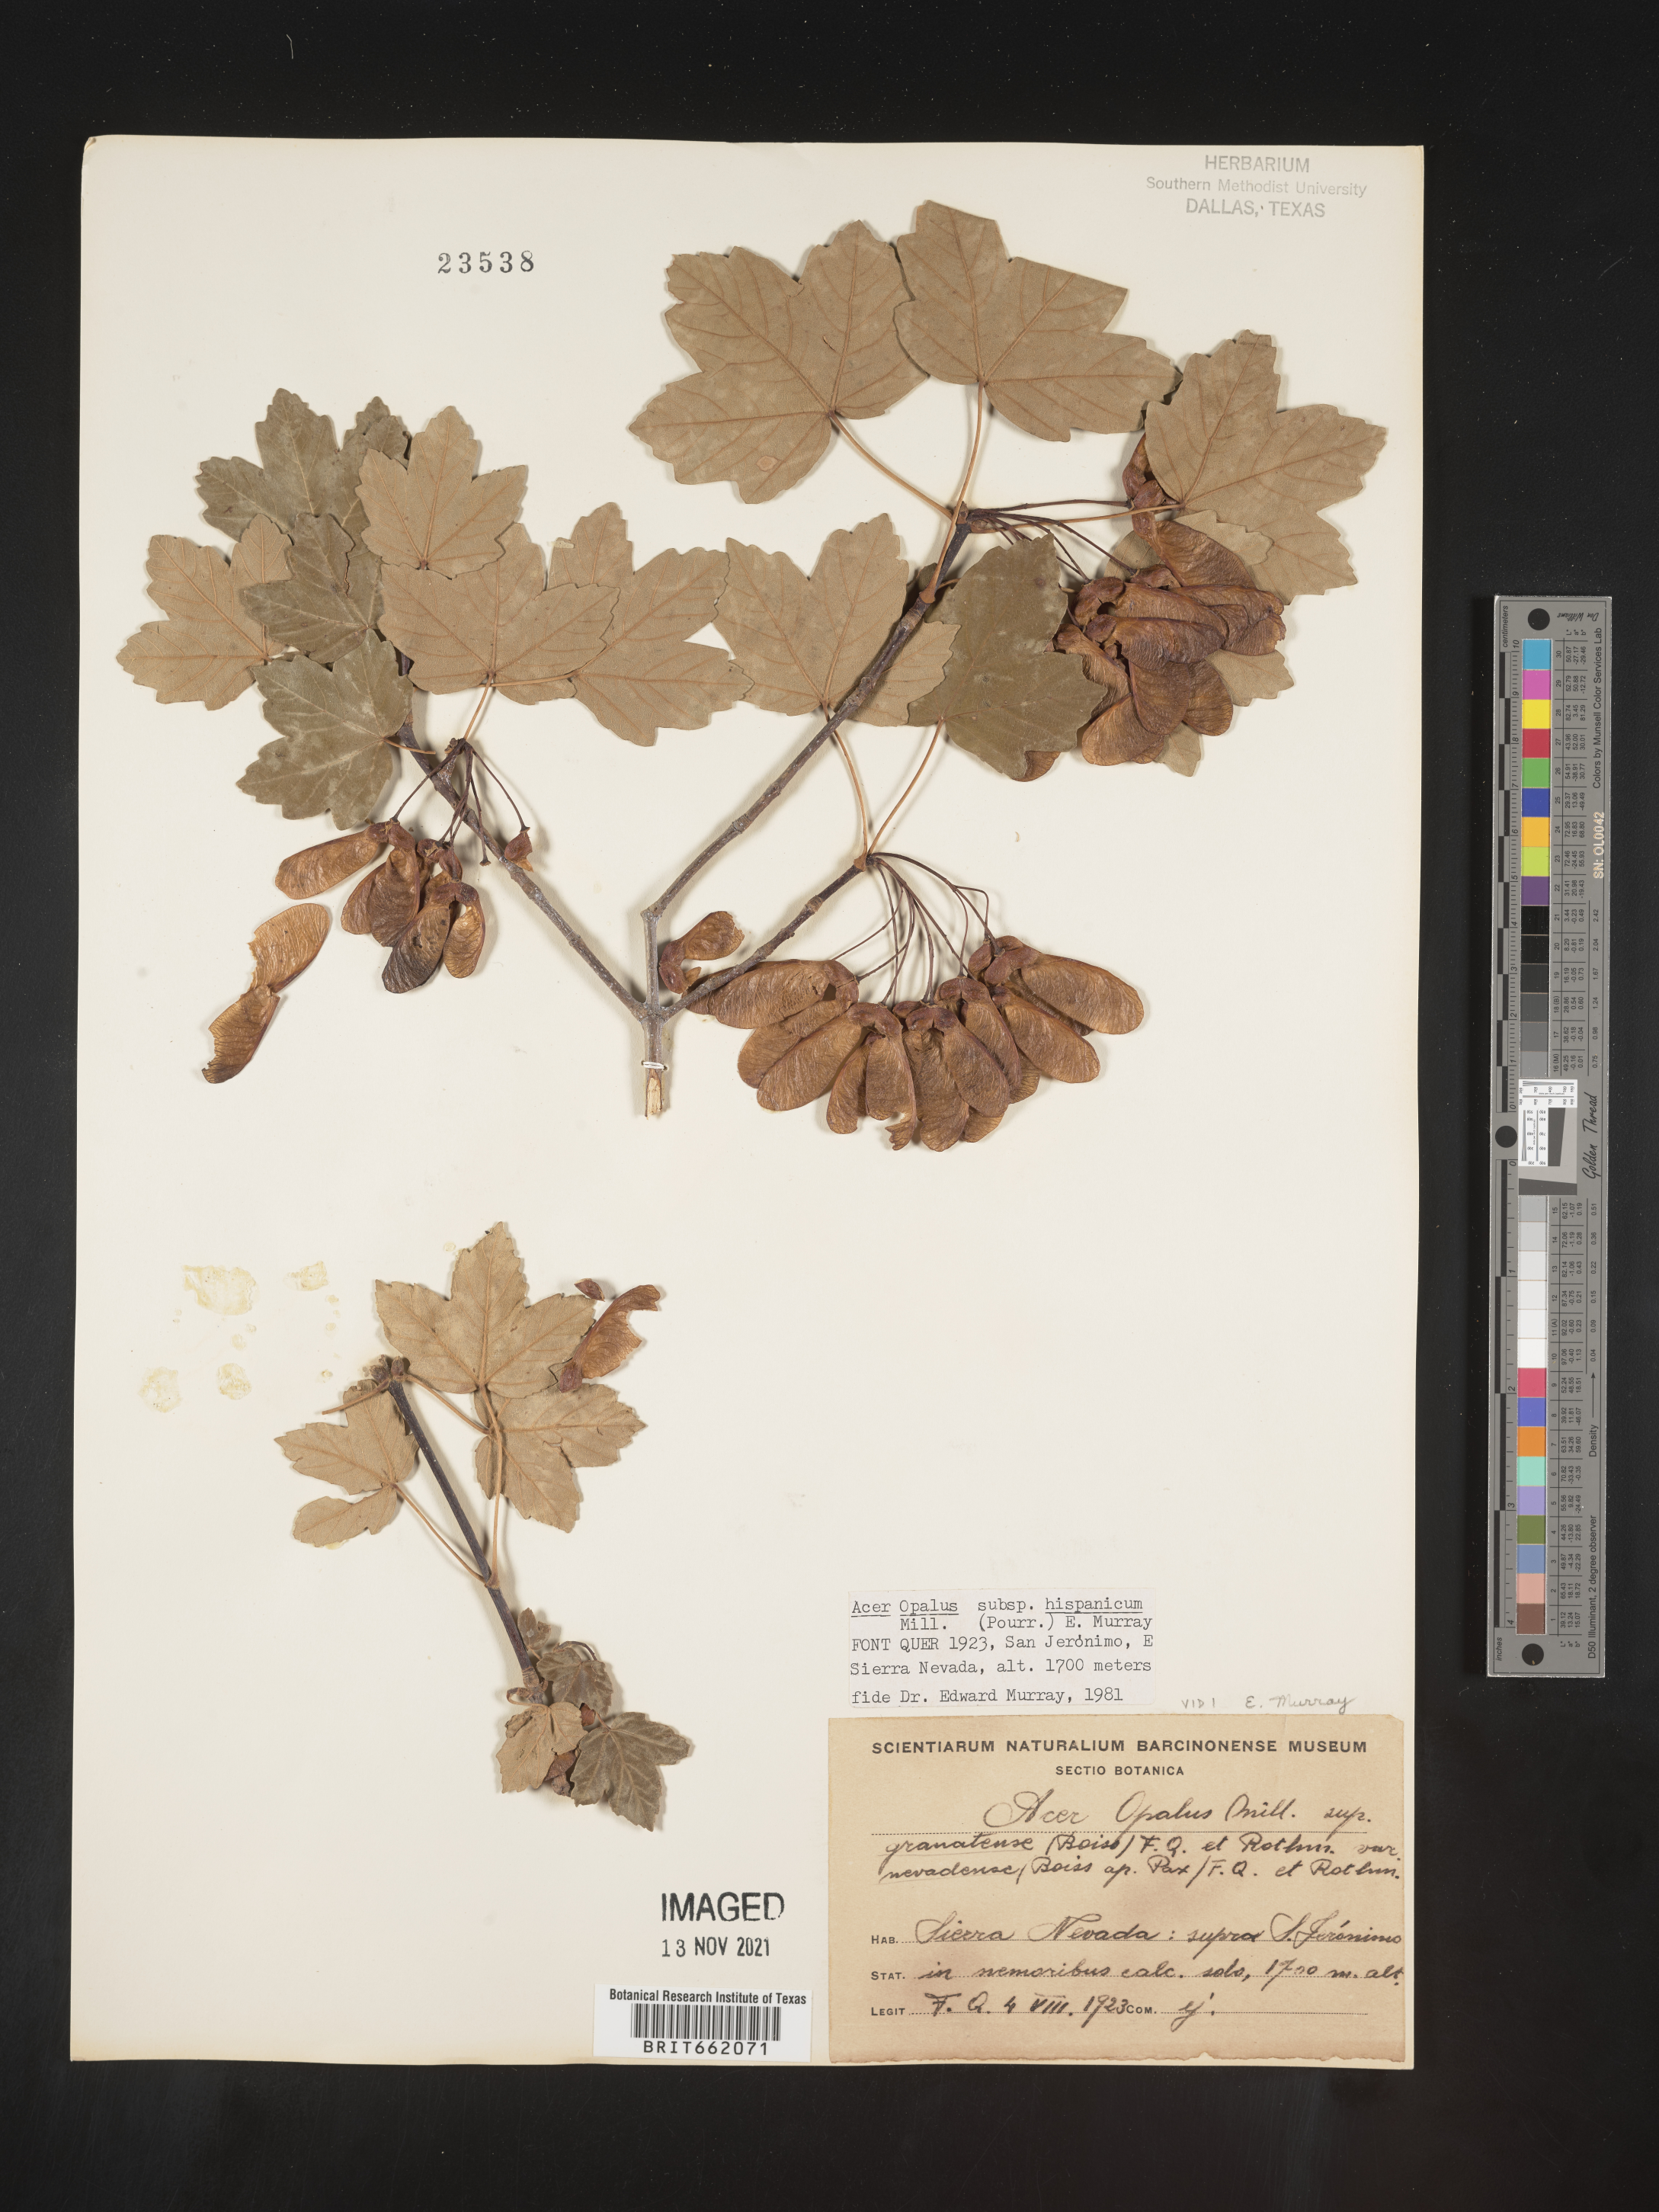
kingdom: Plantae
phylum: Tracheophyta
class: Magnoliopsida
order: Sapindales
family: Sapindaceae
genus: Acer
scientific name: Acer
